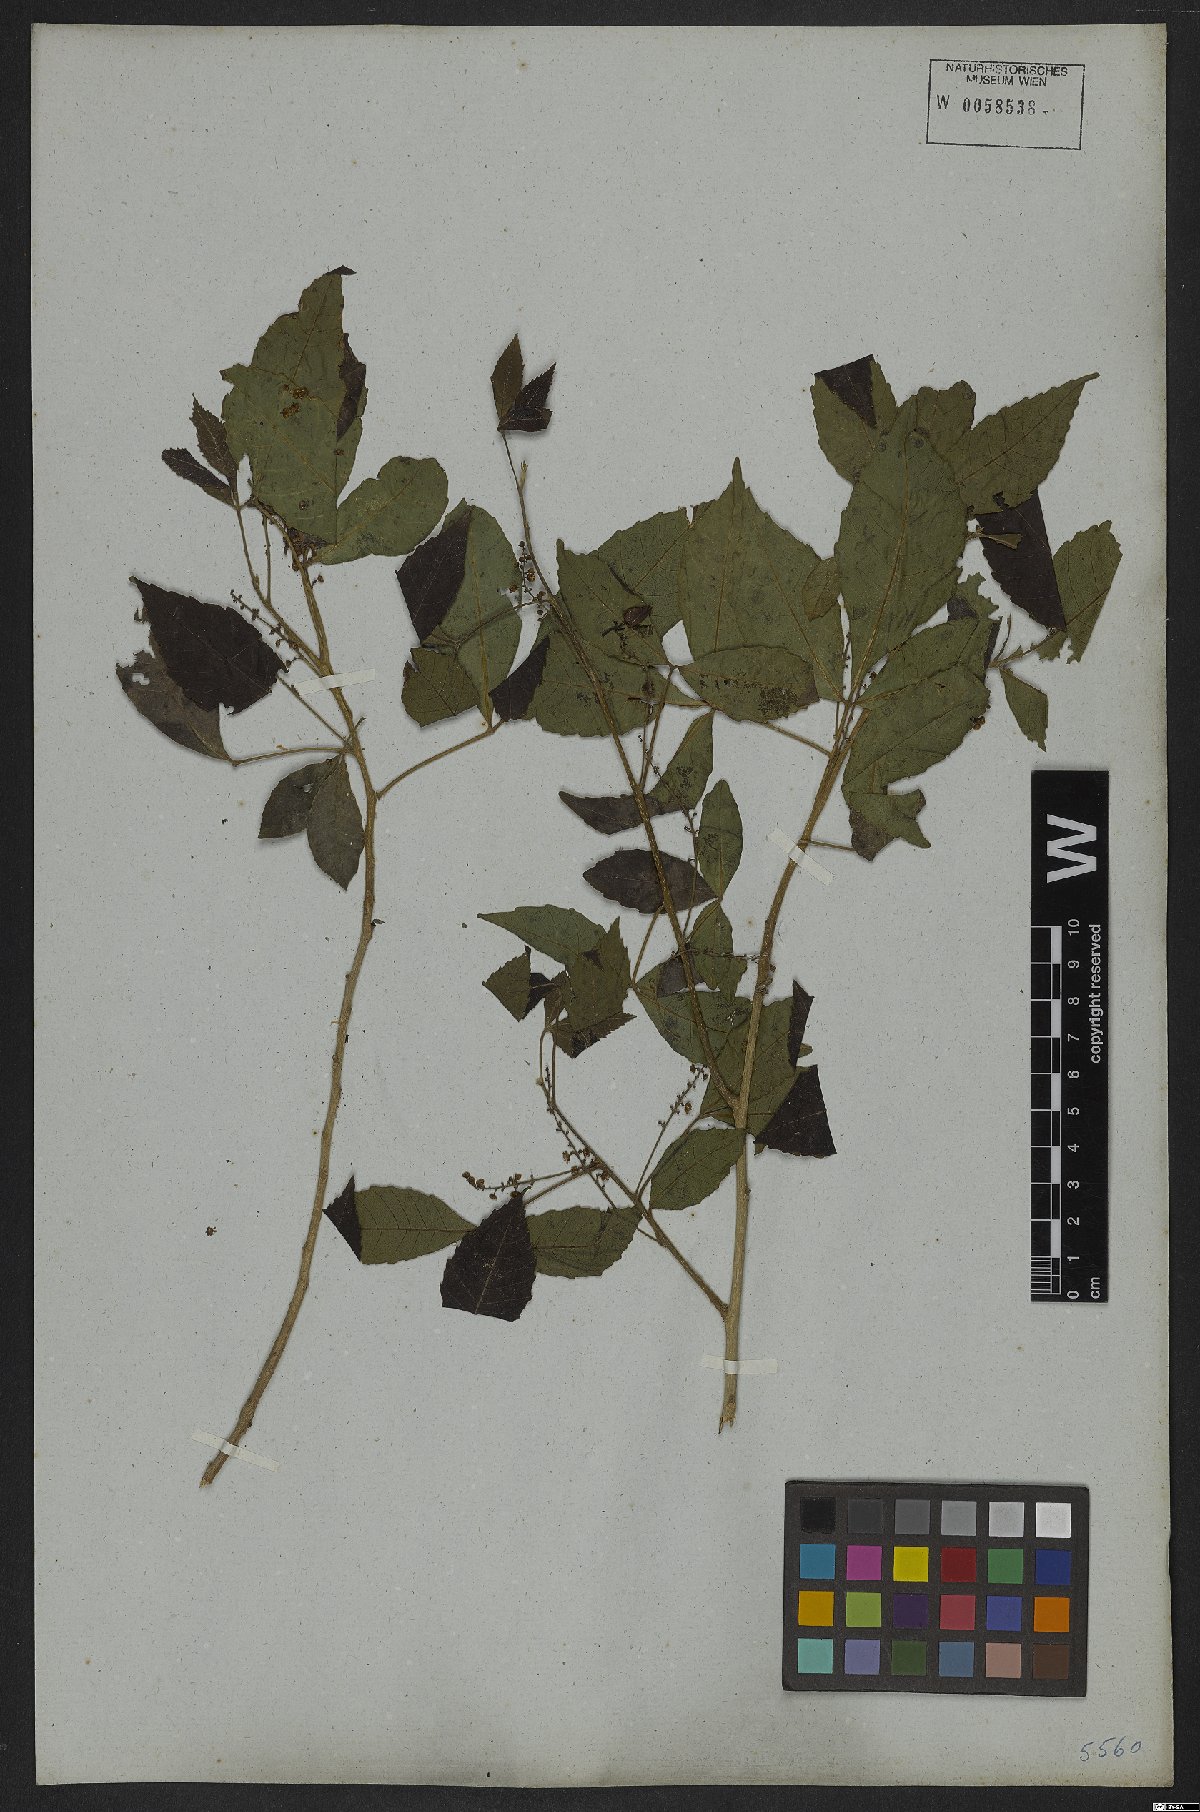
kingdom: Plantae
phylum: Tracheophyta
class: Magnoliopsida
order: Sapindales
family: Sapindaceae
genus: Allophylus
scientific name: Allophylus puberulus
